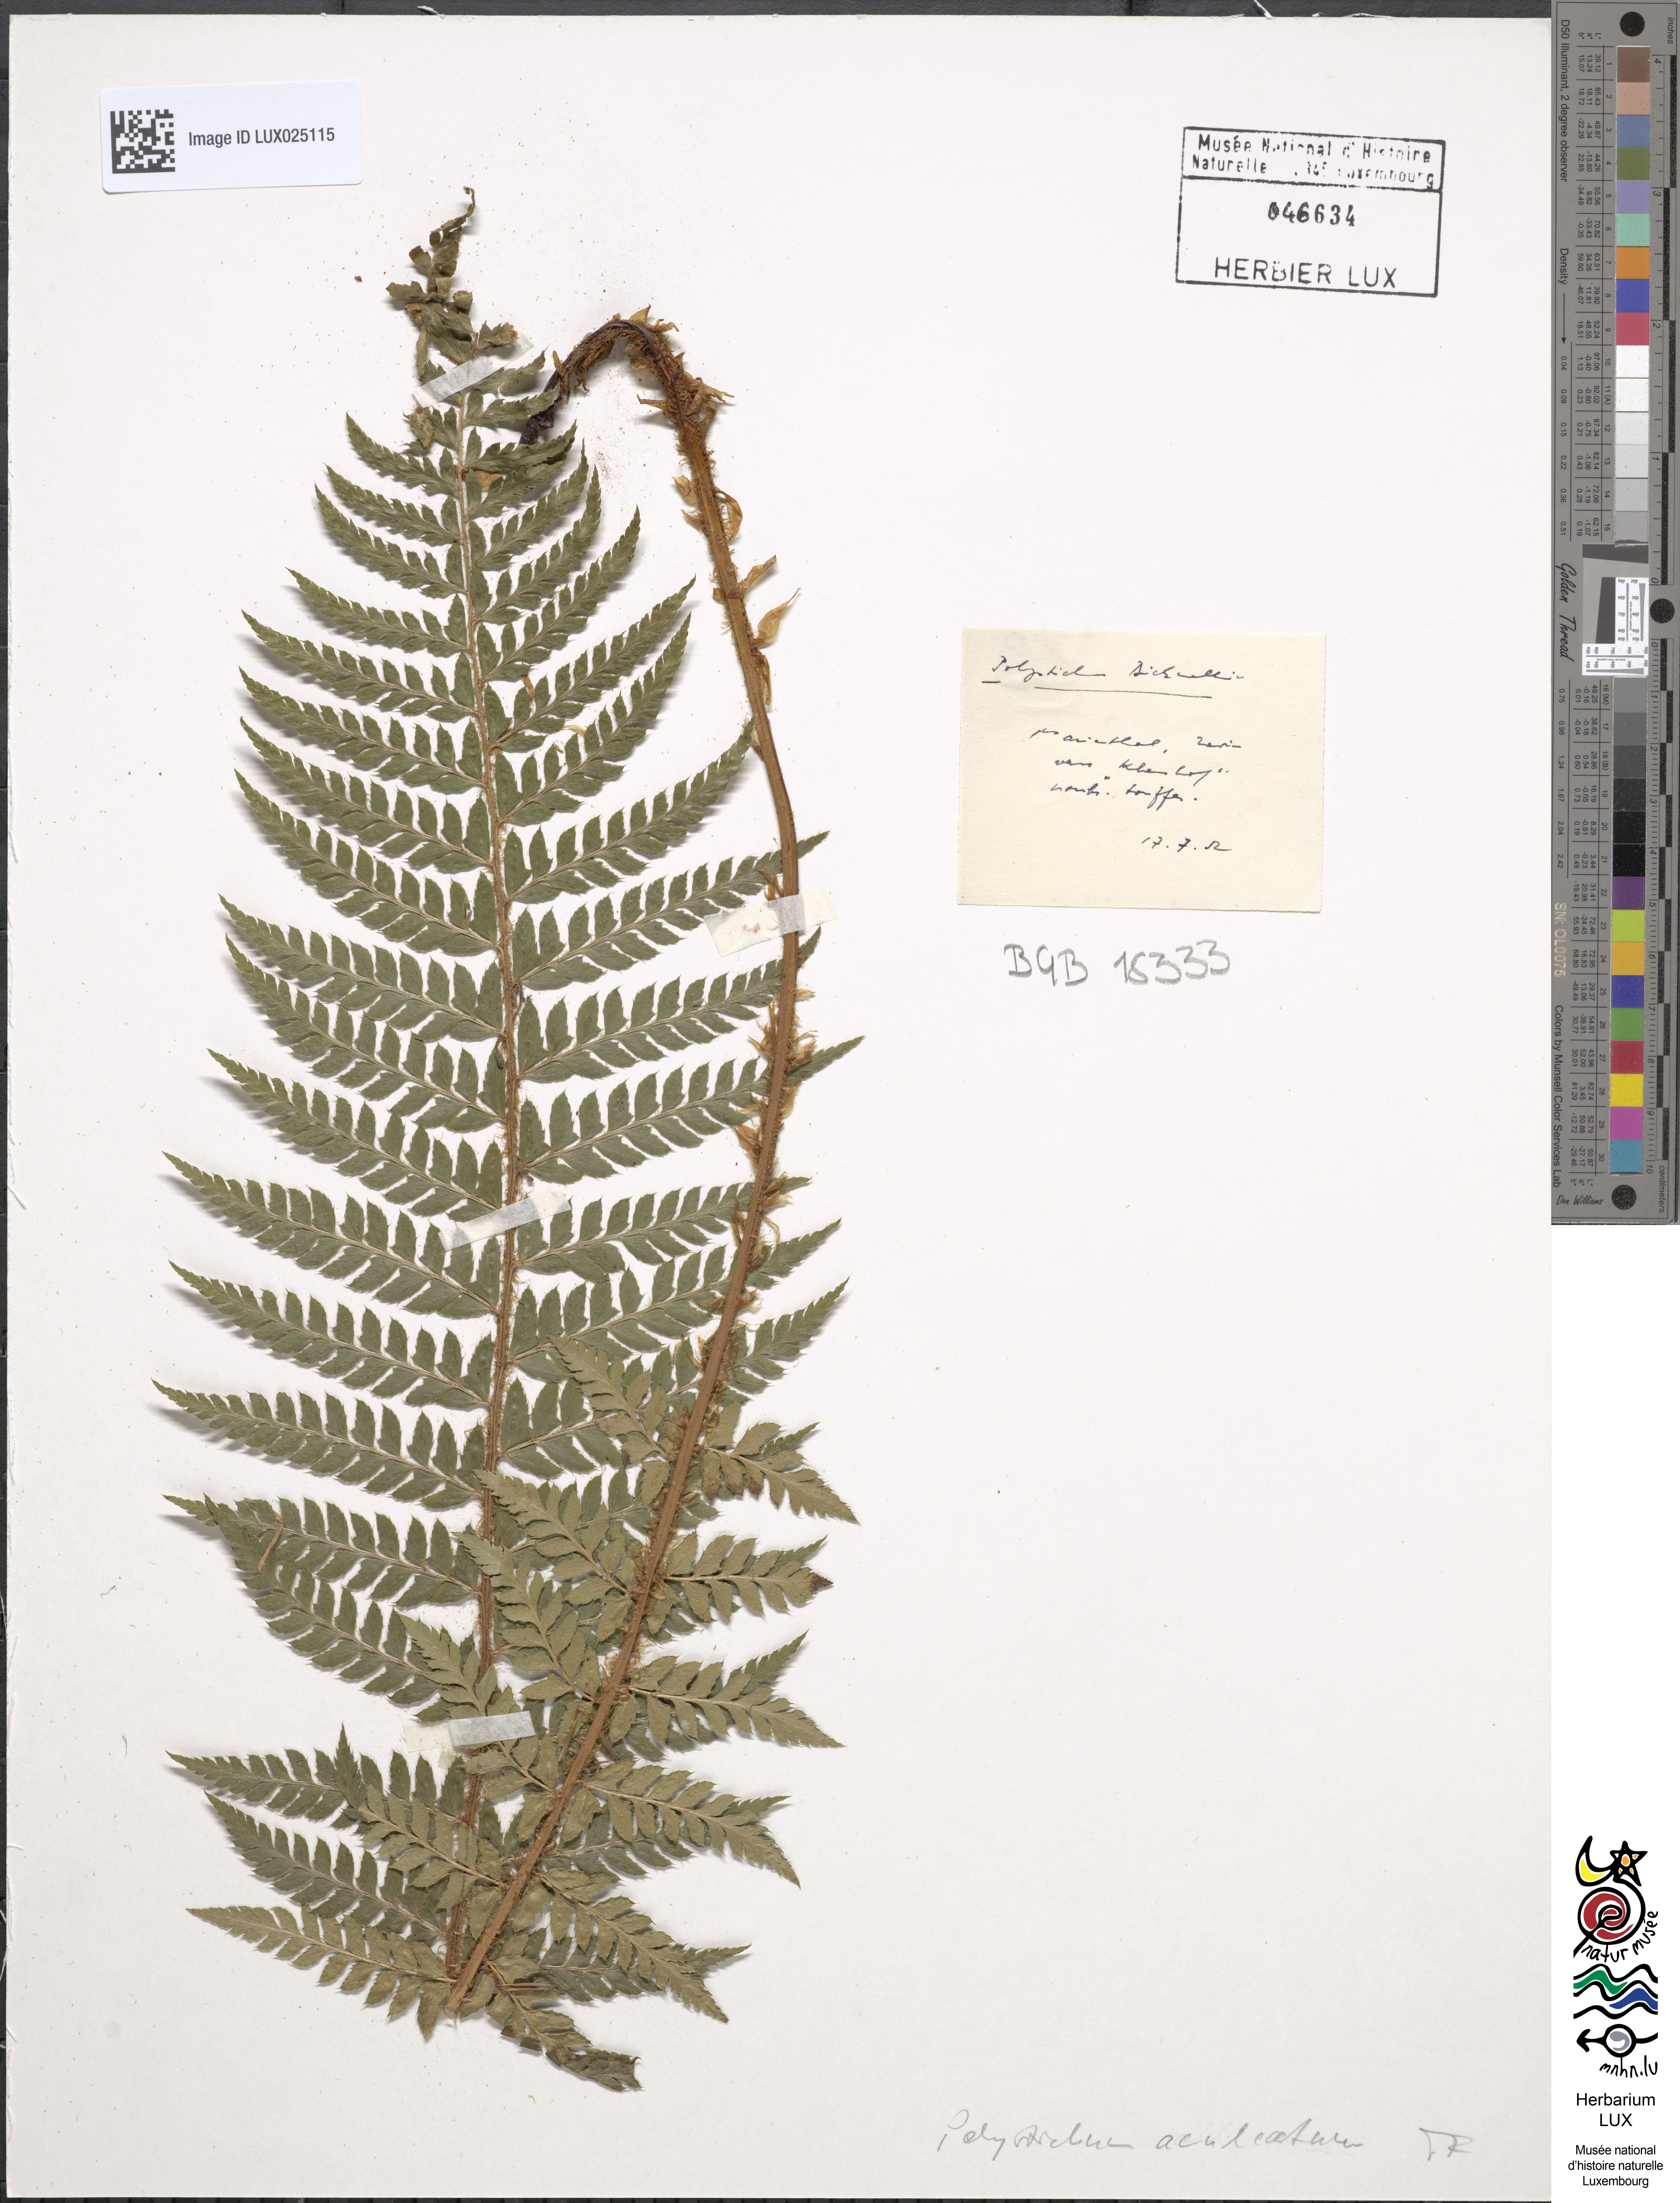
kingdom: Plantae
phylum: Tracheophyta
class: Polypodiopsida
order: Polypodiales
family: Dryopteridaceae
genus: Polystichum
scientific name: Polystichum aculeatum
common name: Hard shield-fern
